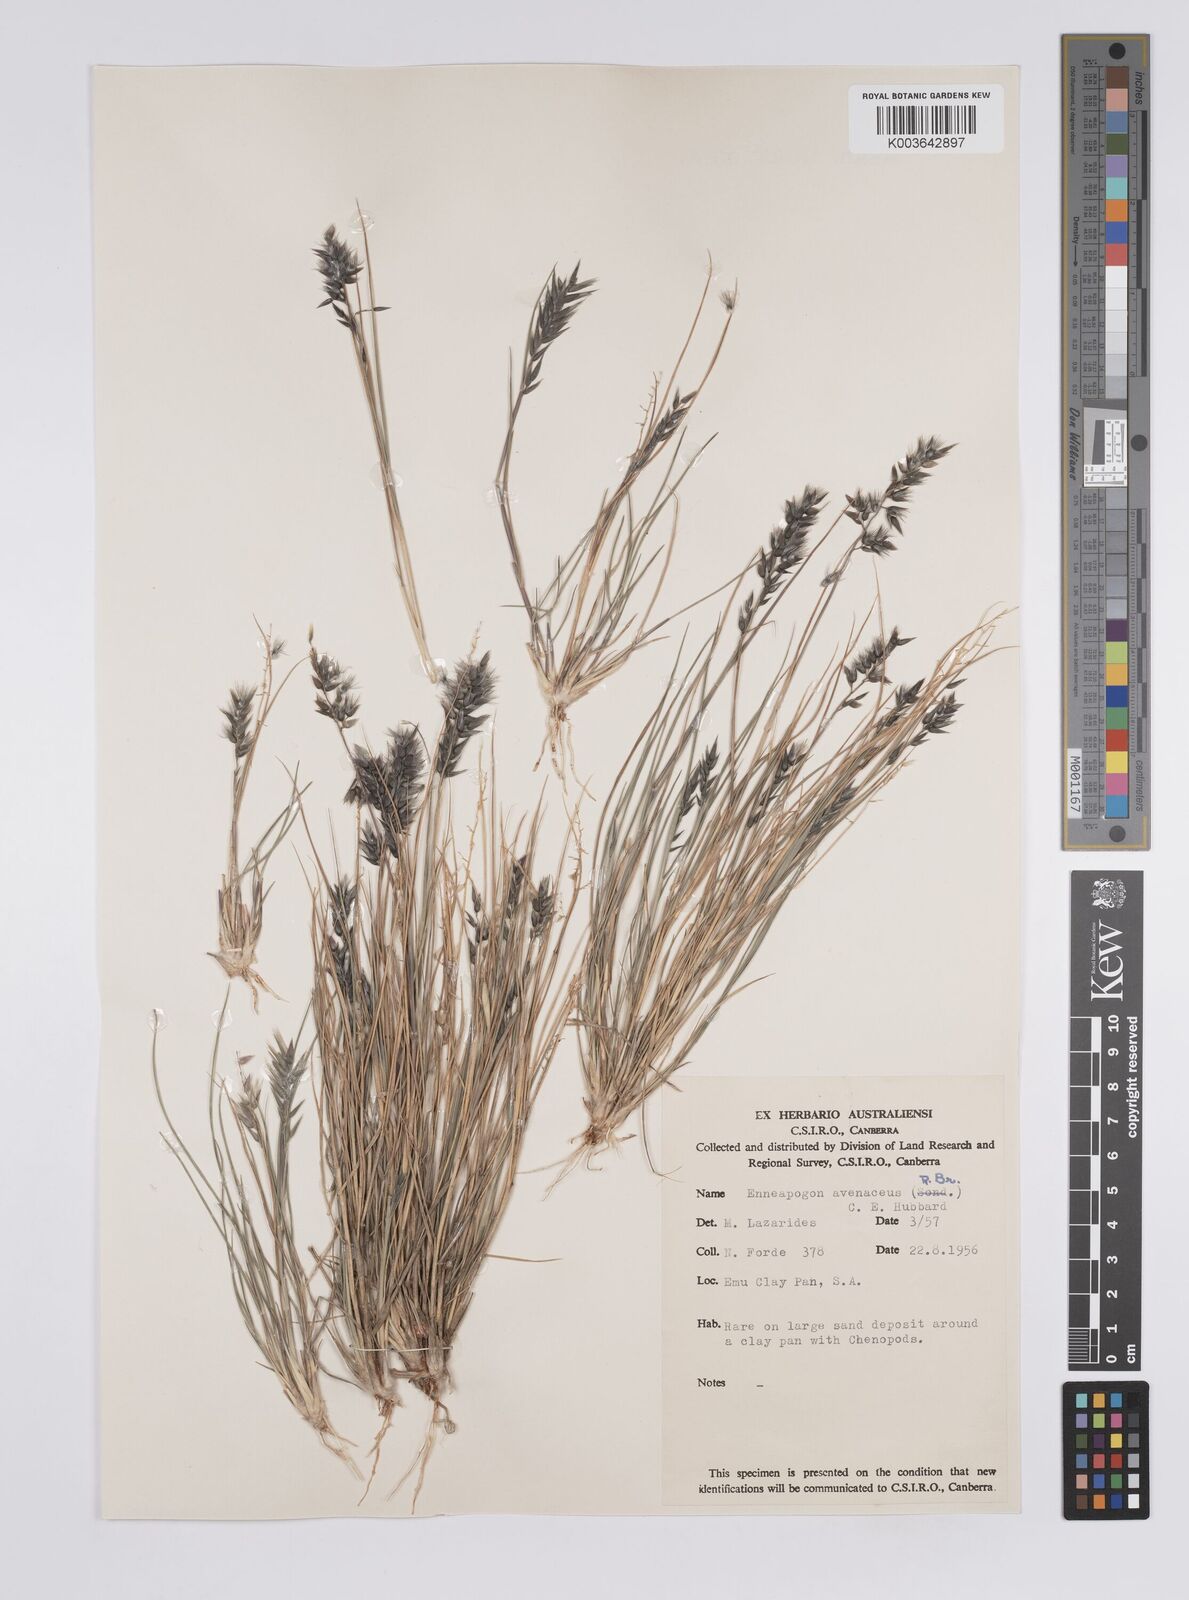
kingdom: Plantae
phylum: Tracheophyta
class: Liliopsida
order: Poales
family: Poaceae
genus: Enneapogon
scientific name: Enneapogon avenaceus
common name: Hairy oat grass
